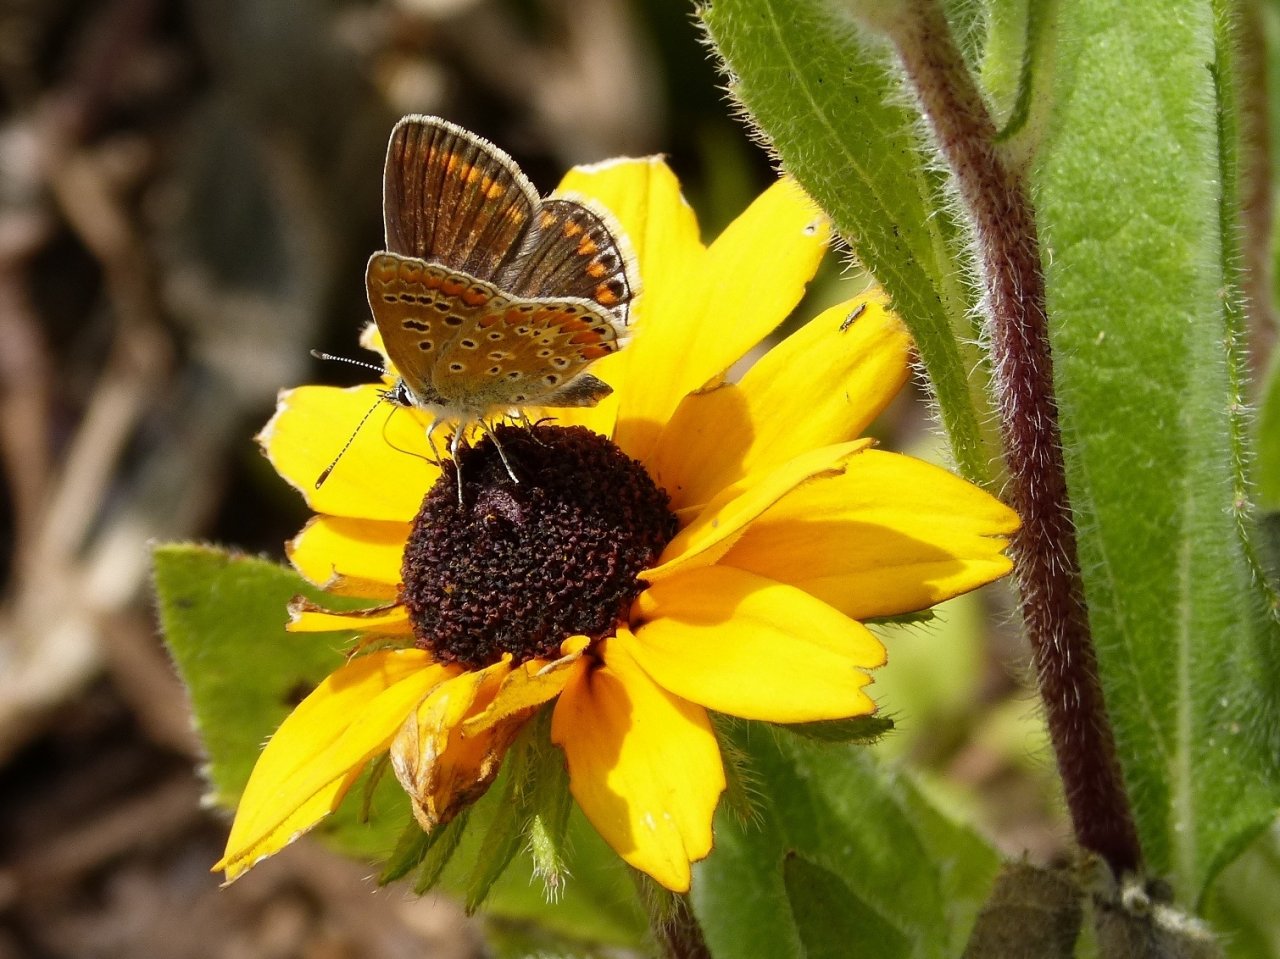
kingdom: Animalia
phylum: Arthropoda
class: Insecta
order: Lepidoptera
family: Lycaenidae
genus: Polyommatus
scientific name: Polyommatus icarus
